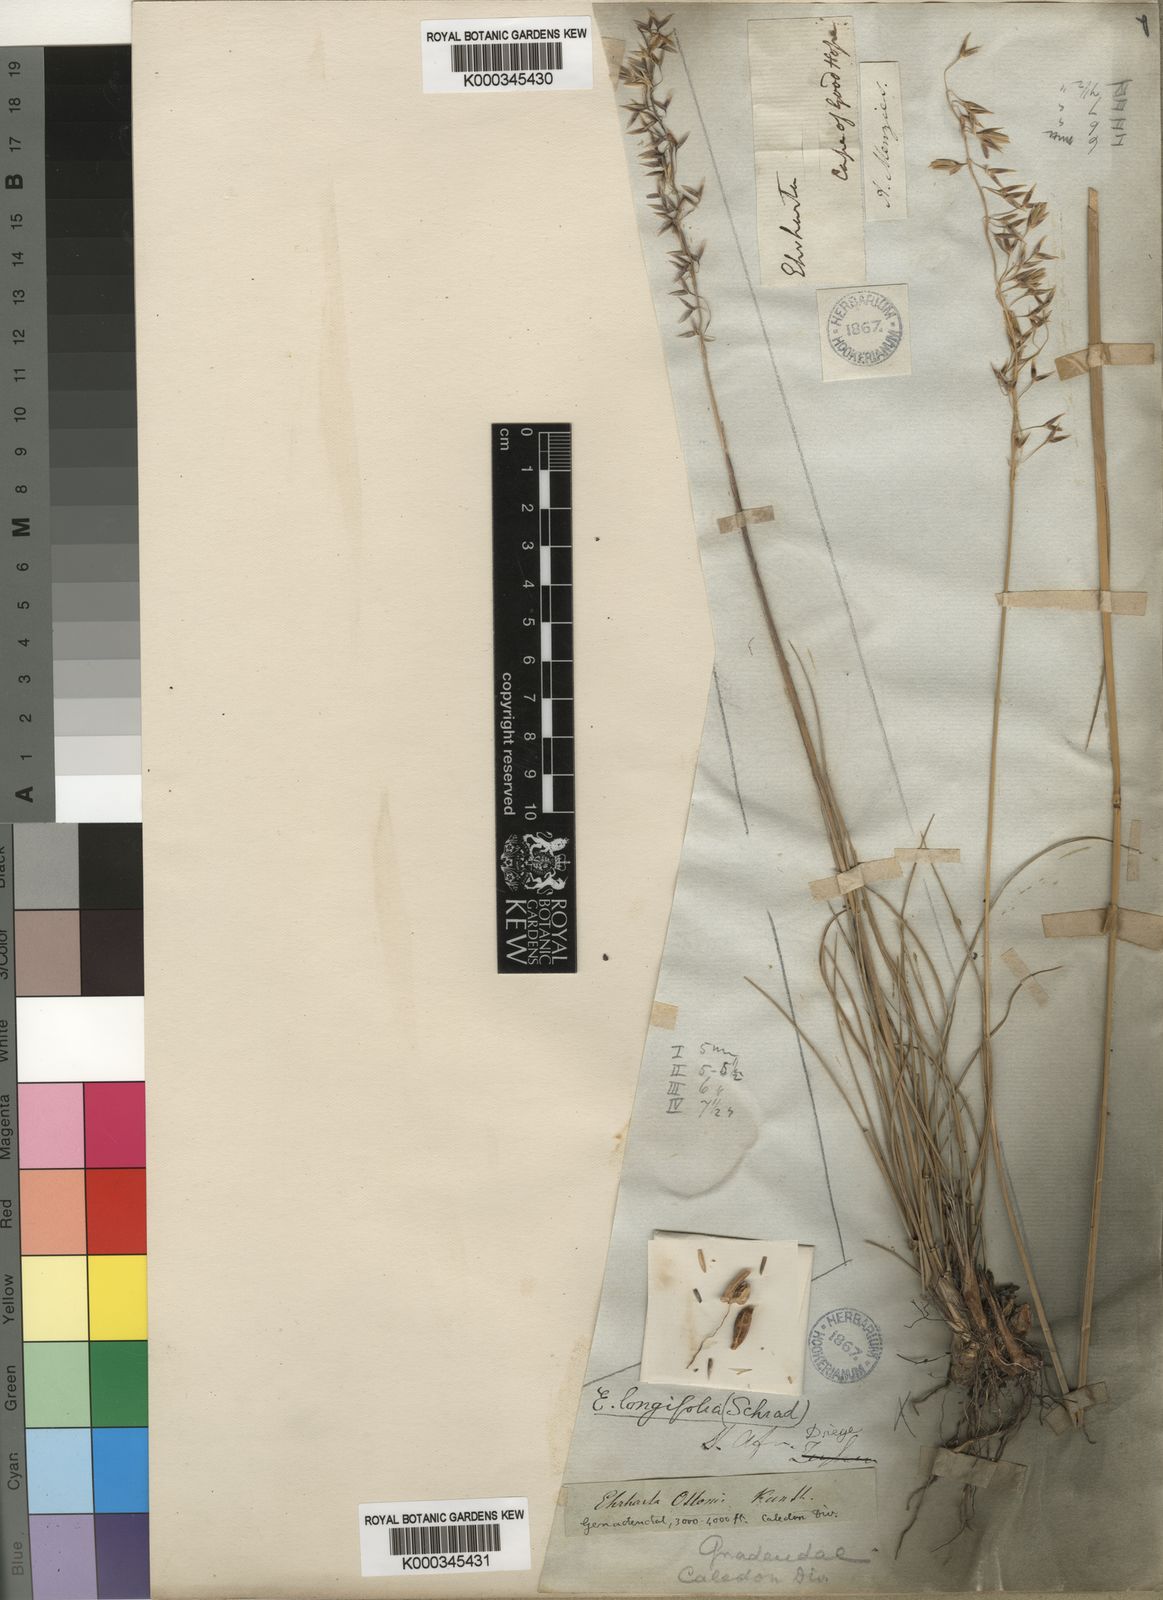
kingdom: Plantae
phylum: Tracheophyta
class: Liliopsida
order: Poales
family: Poaceae
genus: Ehrharta
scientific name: Ehrharta longifolia
